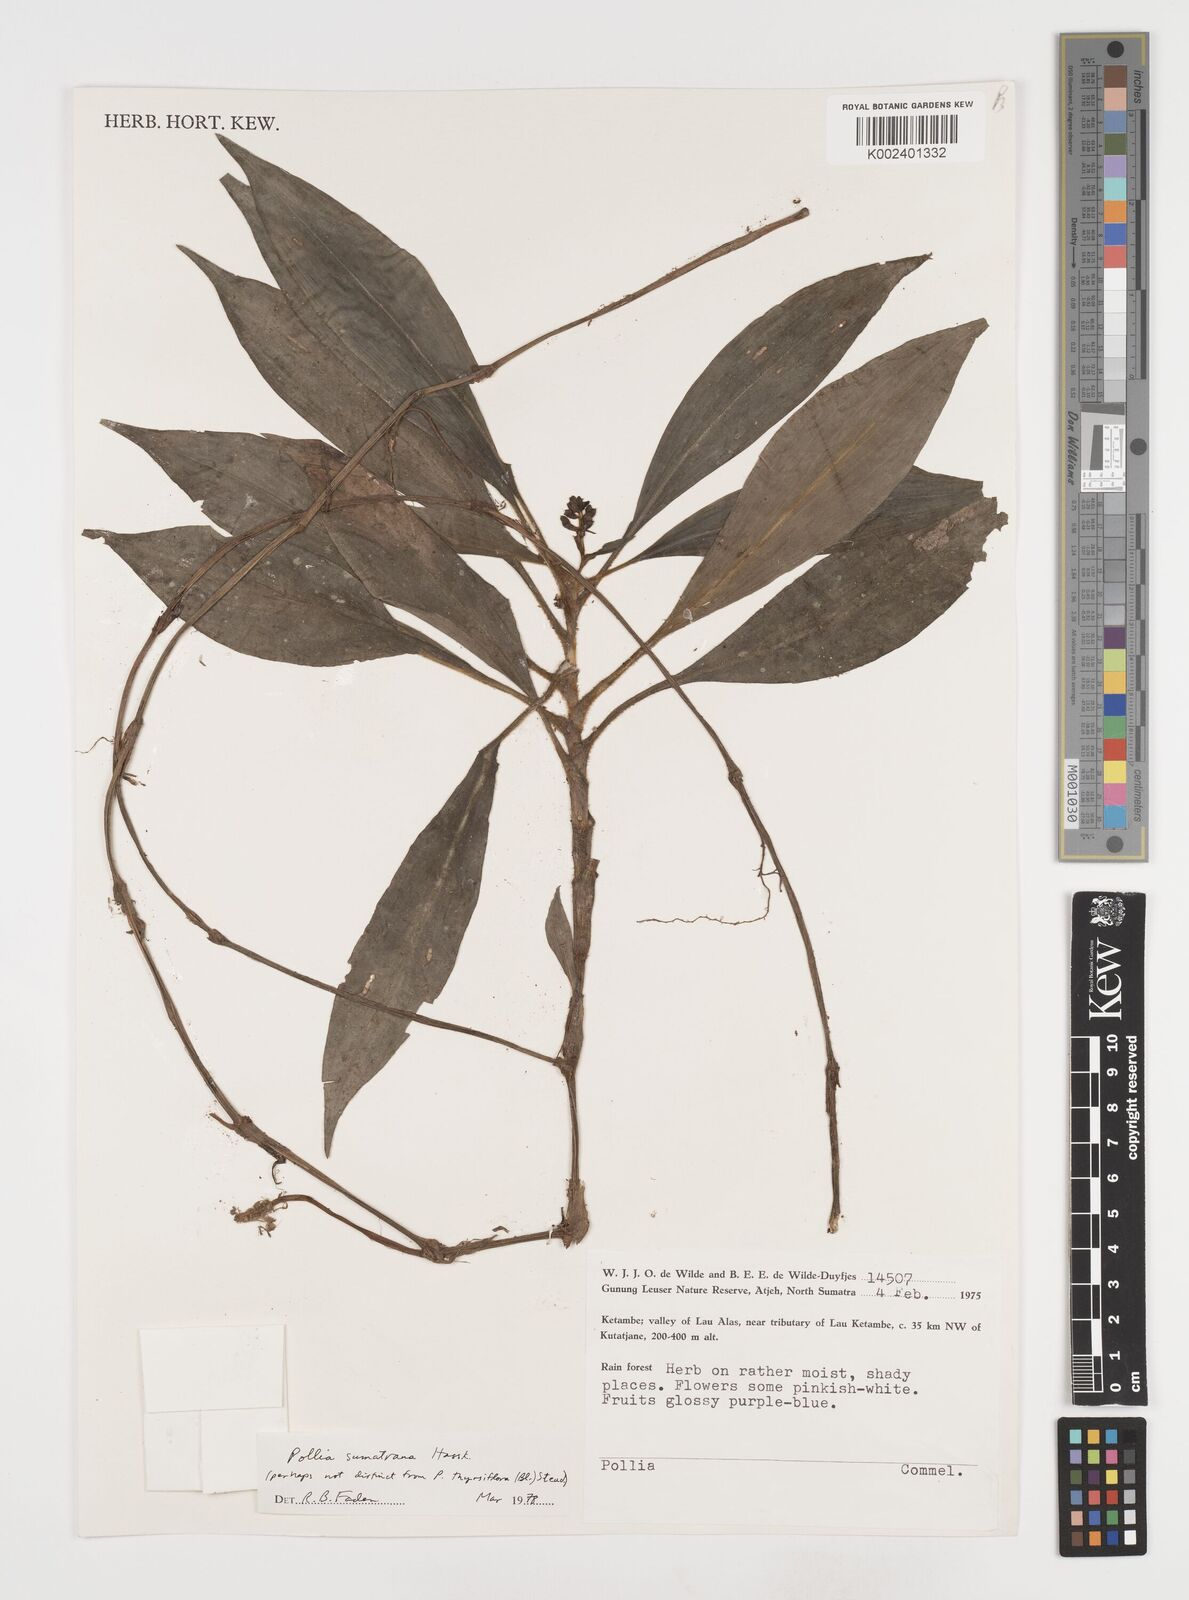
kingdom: Plantae
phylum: Tracheophyta
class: Liliopsida
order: Commelinales
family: Commelinaceae
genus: Pollia
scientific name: Pollia sumatrana
